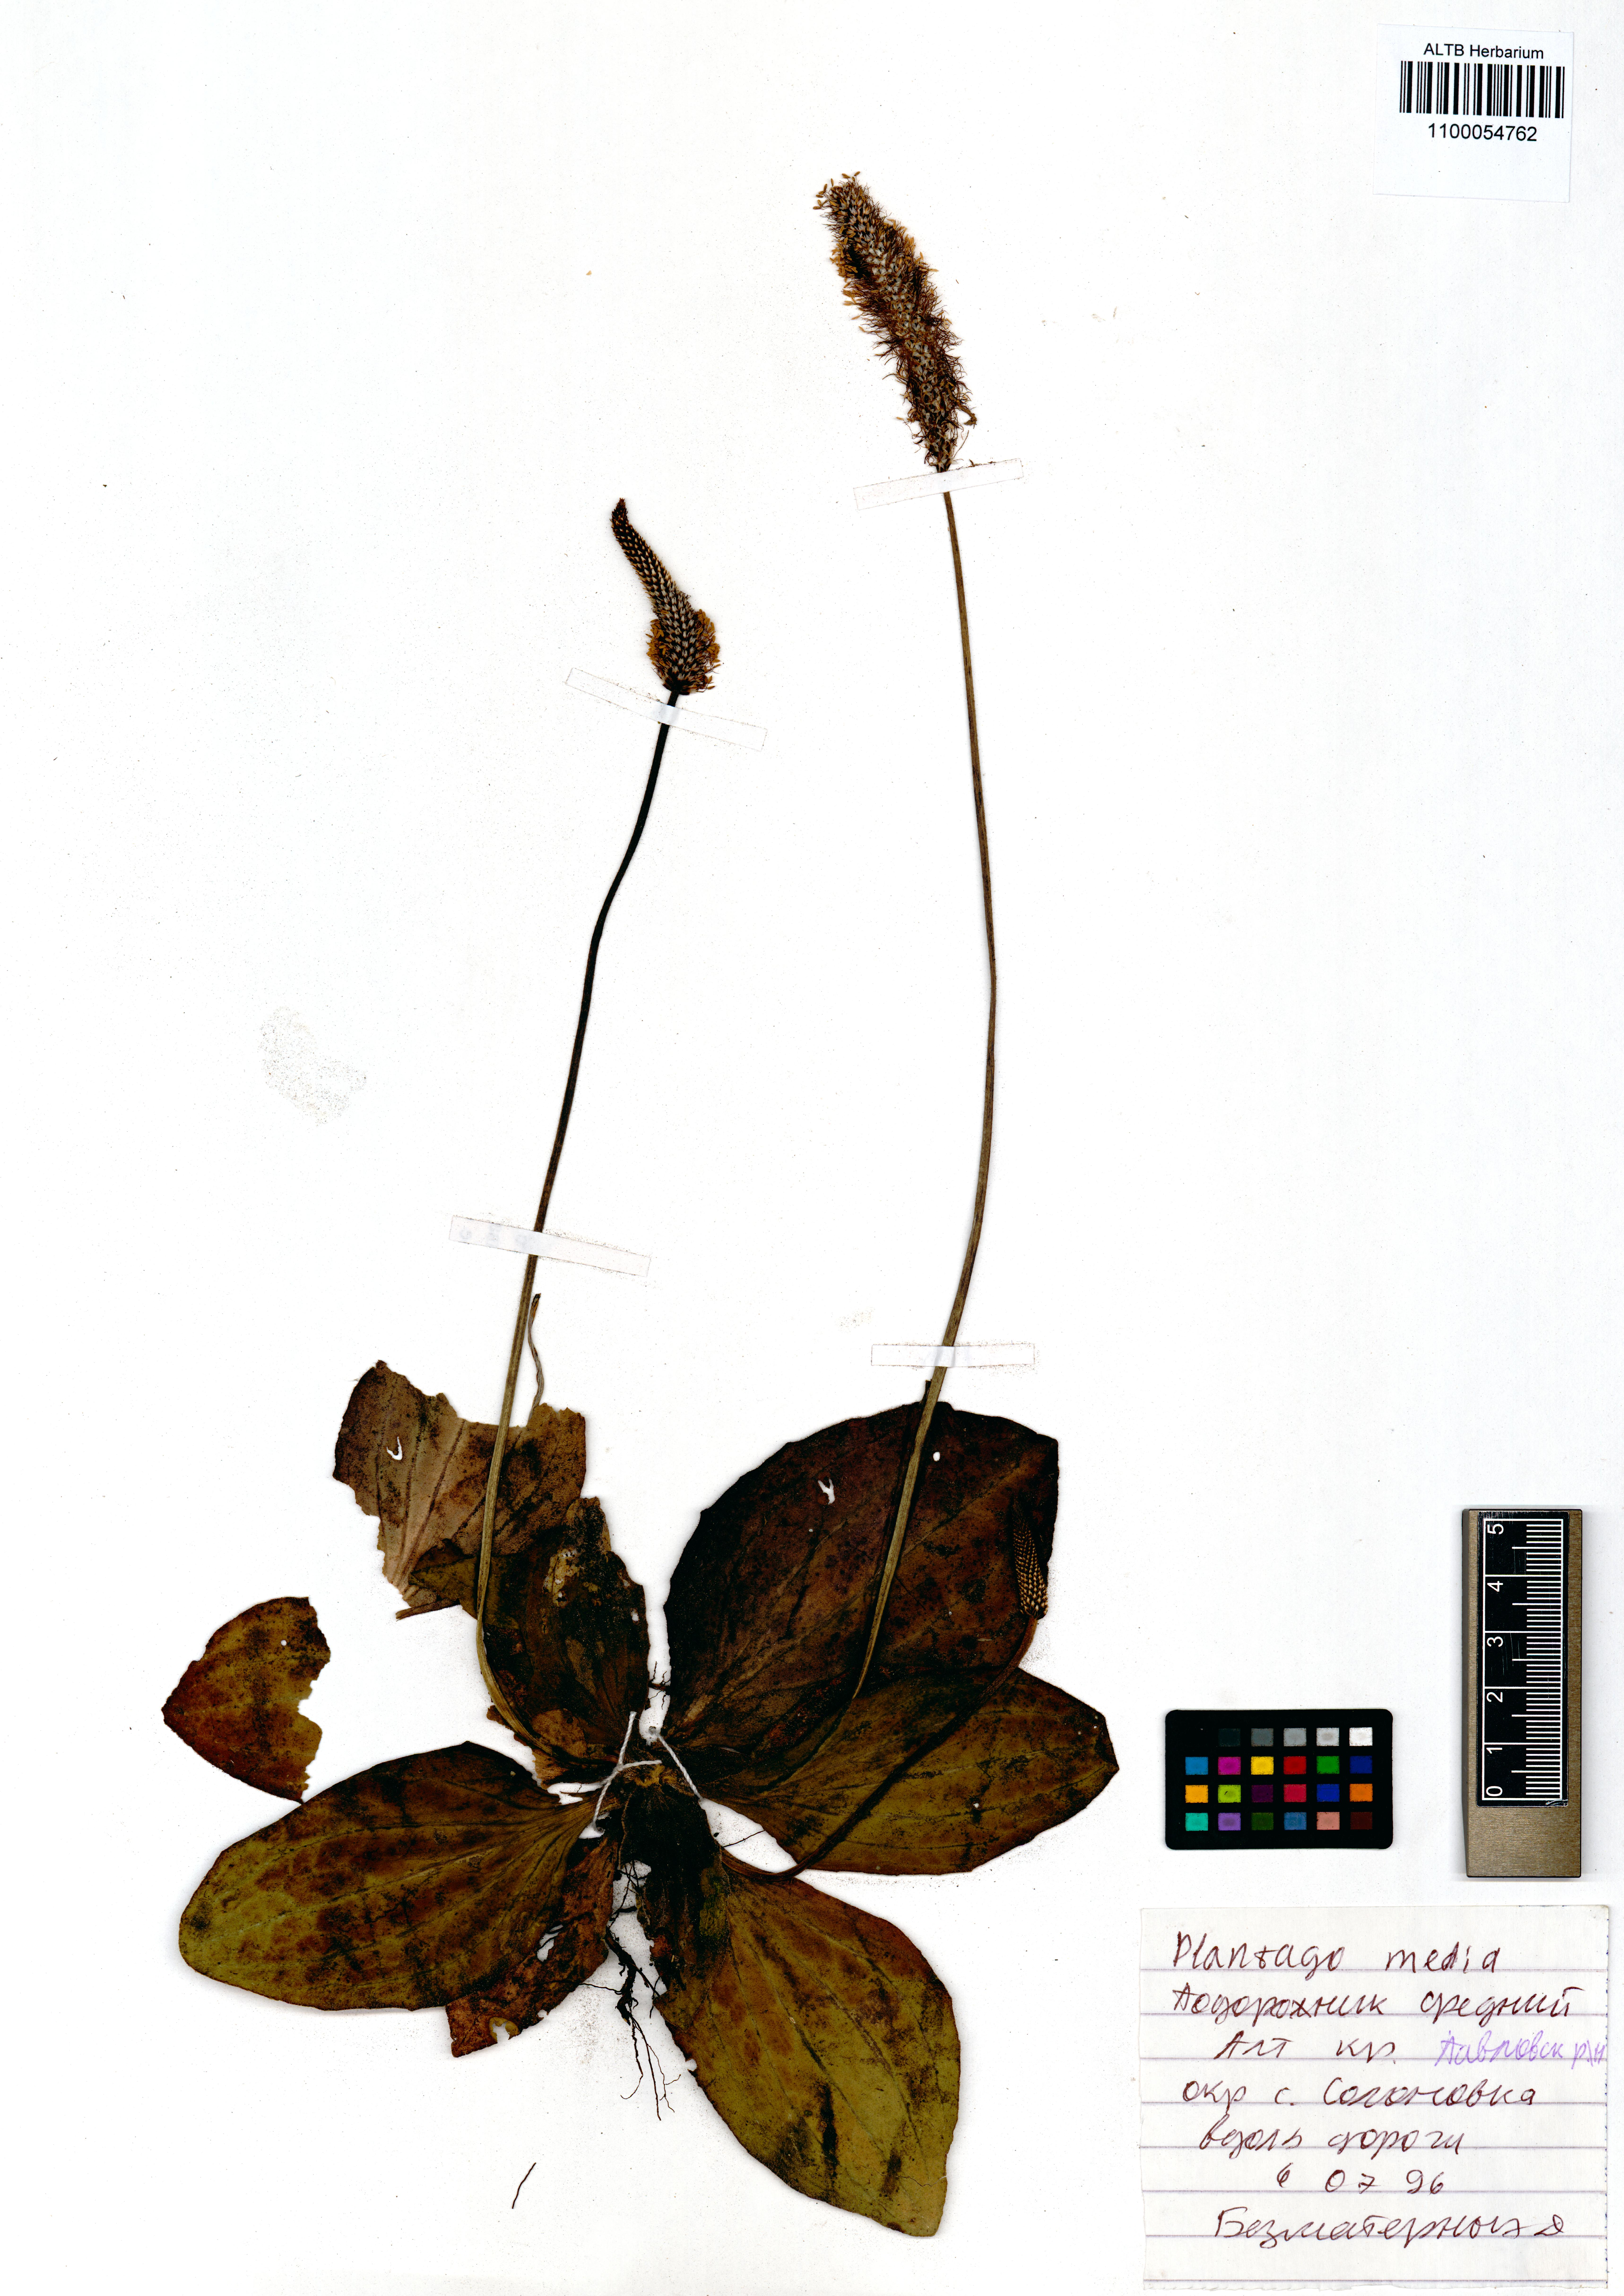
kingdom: Plantae
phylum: Tracheophyta
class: Magnoliopsida
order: Lamiales
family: Plantaginaceae
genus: Plantago
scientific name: Plantago media
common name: Hoary plantain
